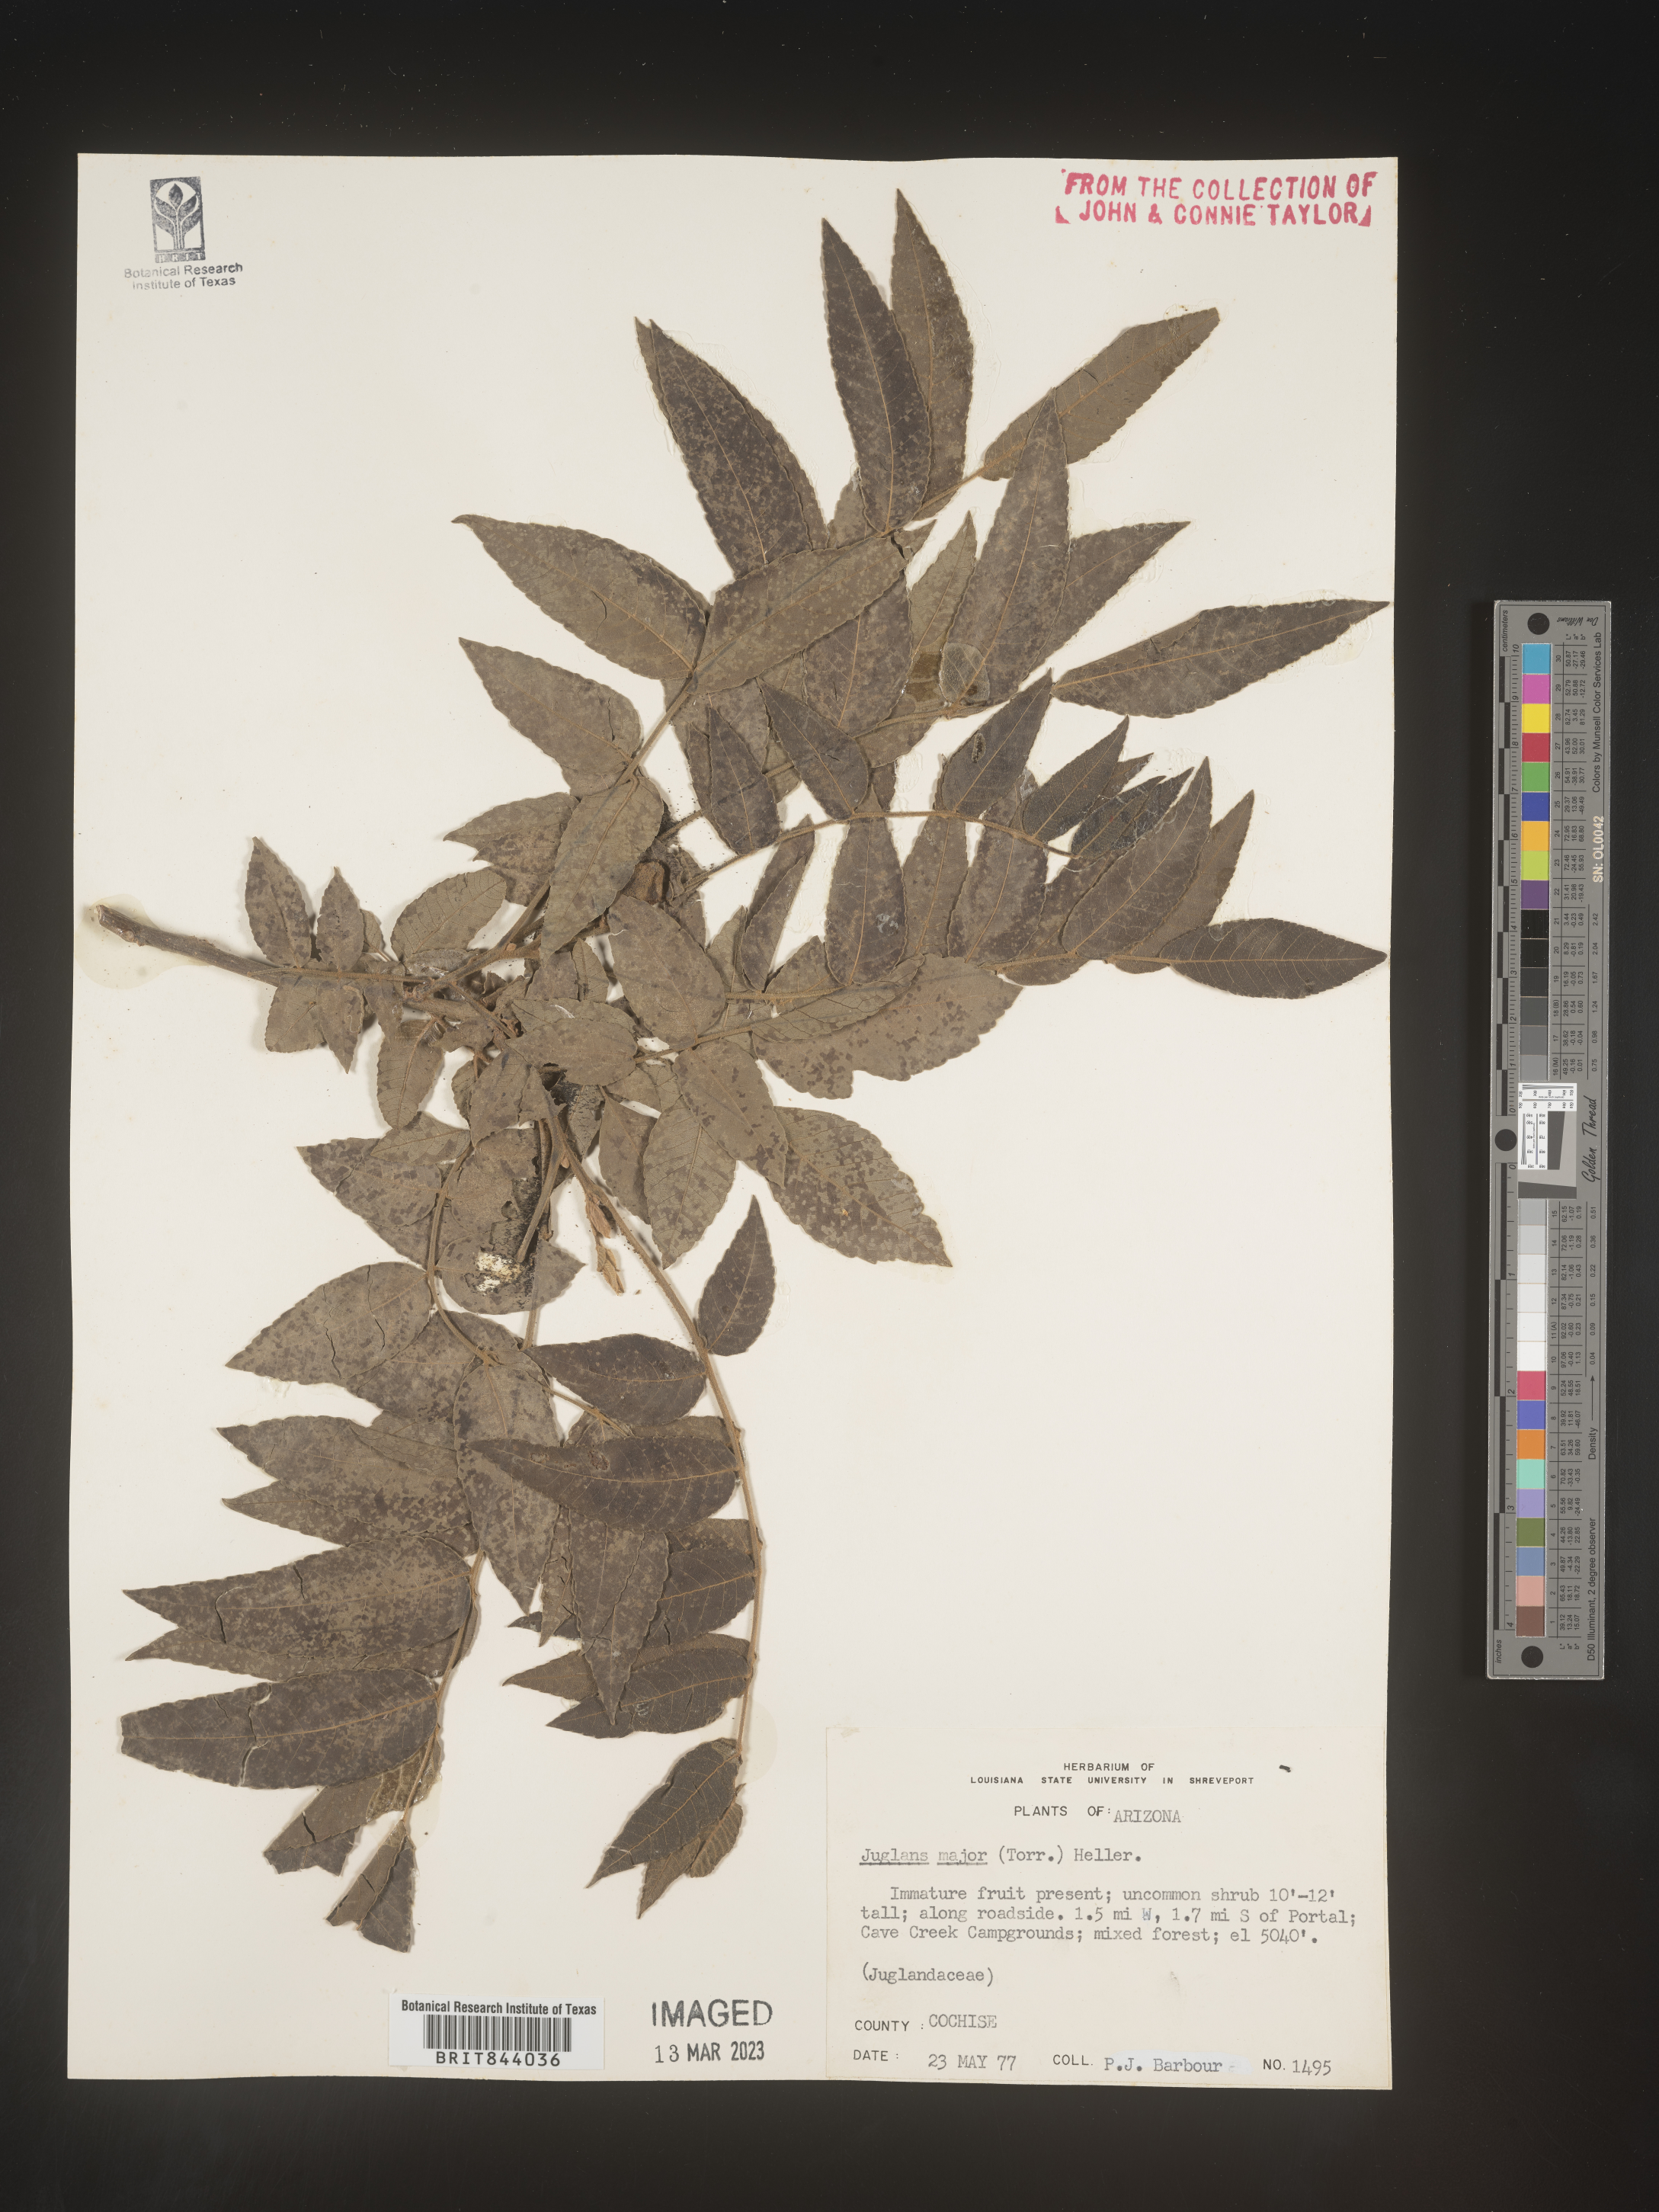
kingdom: Plantae
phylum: Tracheophyta
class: Magnoliopsida
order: Fagales
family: Juglandaceae
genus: Juglans
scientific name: Juglans major
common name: Arizona walnut
